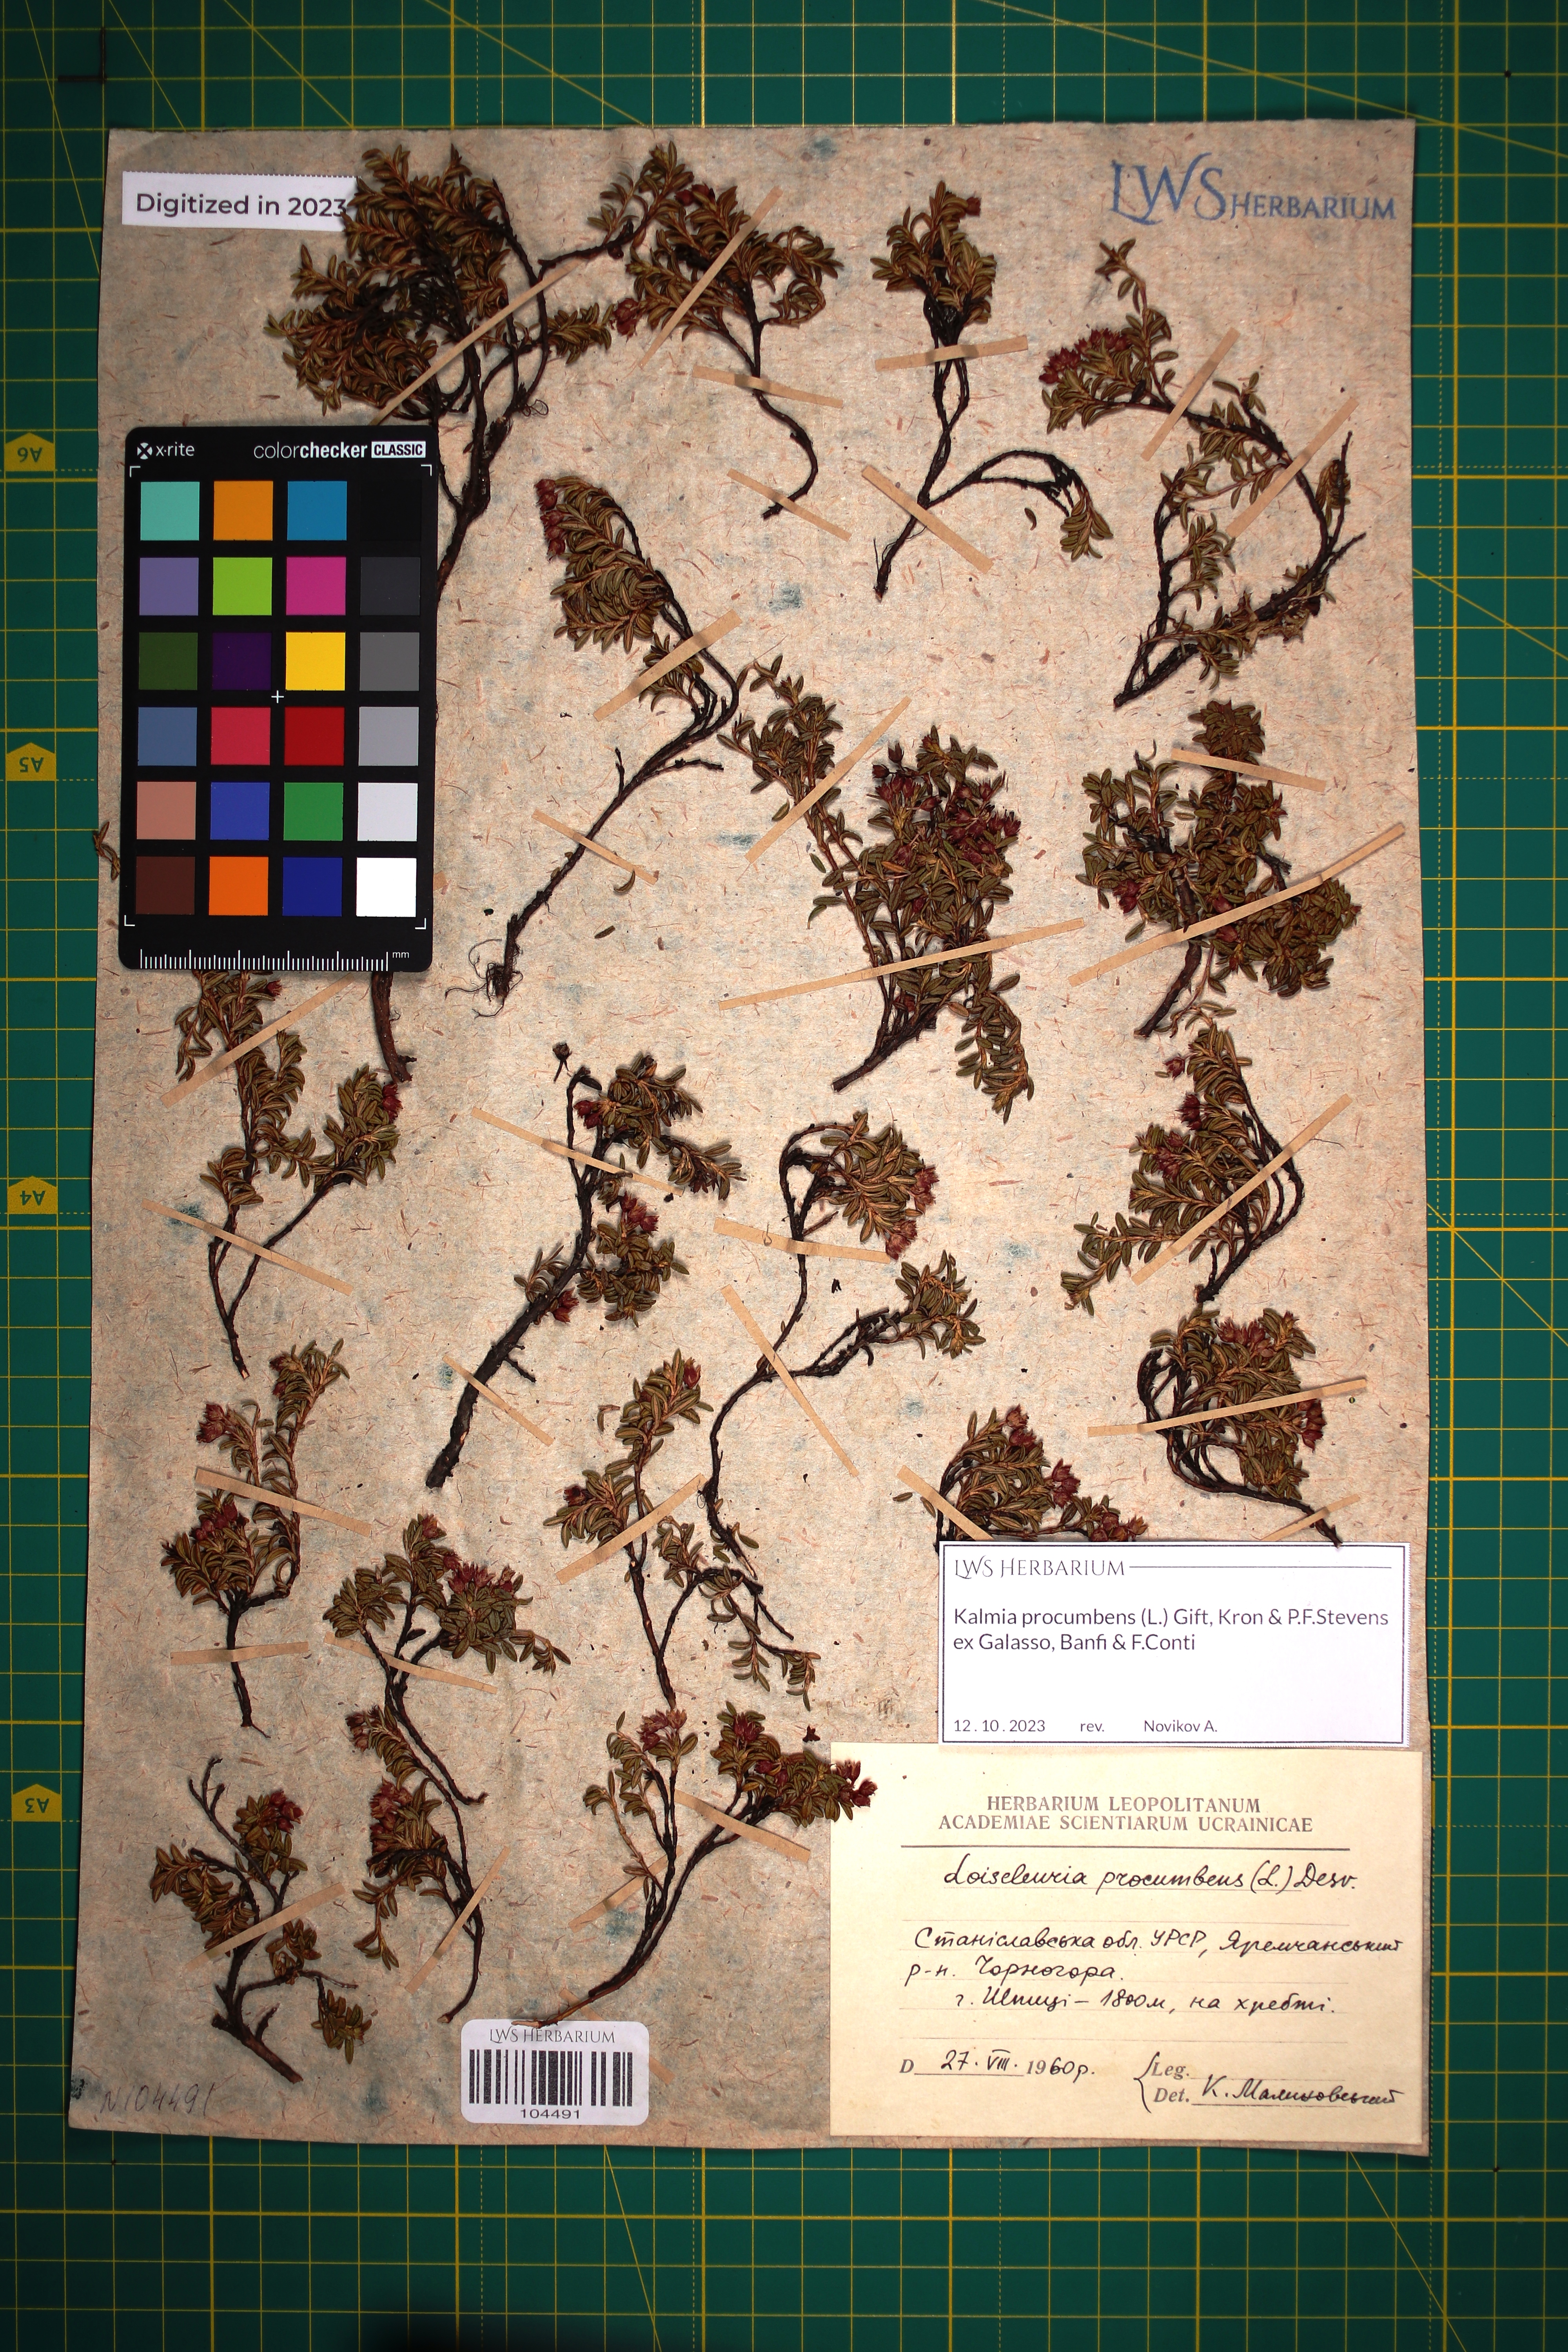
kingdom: Plantae
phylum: Tracheophyta
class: Magnoliopsida
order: Ericales
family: Ericaceae
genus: Kalmia
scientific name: Kalmia procumbens
